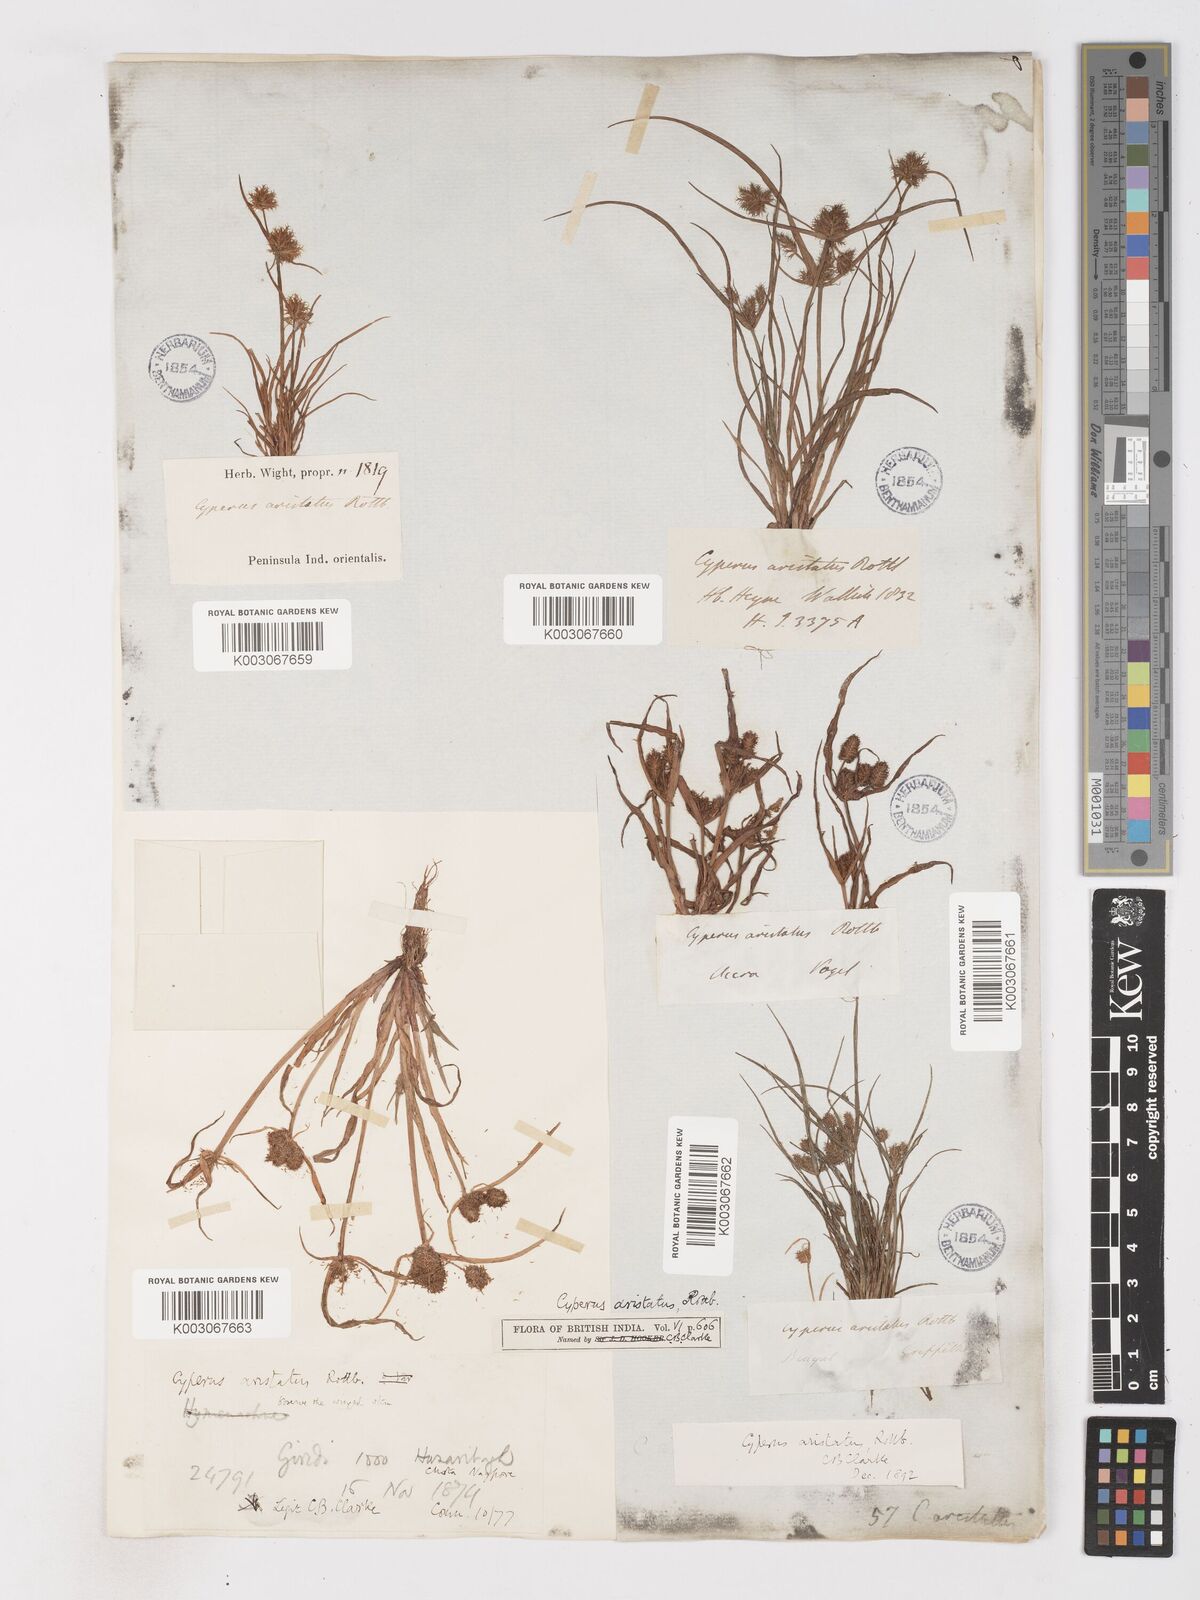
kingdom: Plantae
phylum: Tracheophyta
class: Liliopsida
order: Poales
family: Cyperaceae
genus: Cyperus
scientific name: Cyperus squarrosus
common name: Awned cyperus
